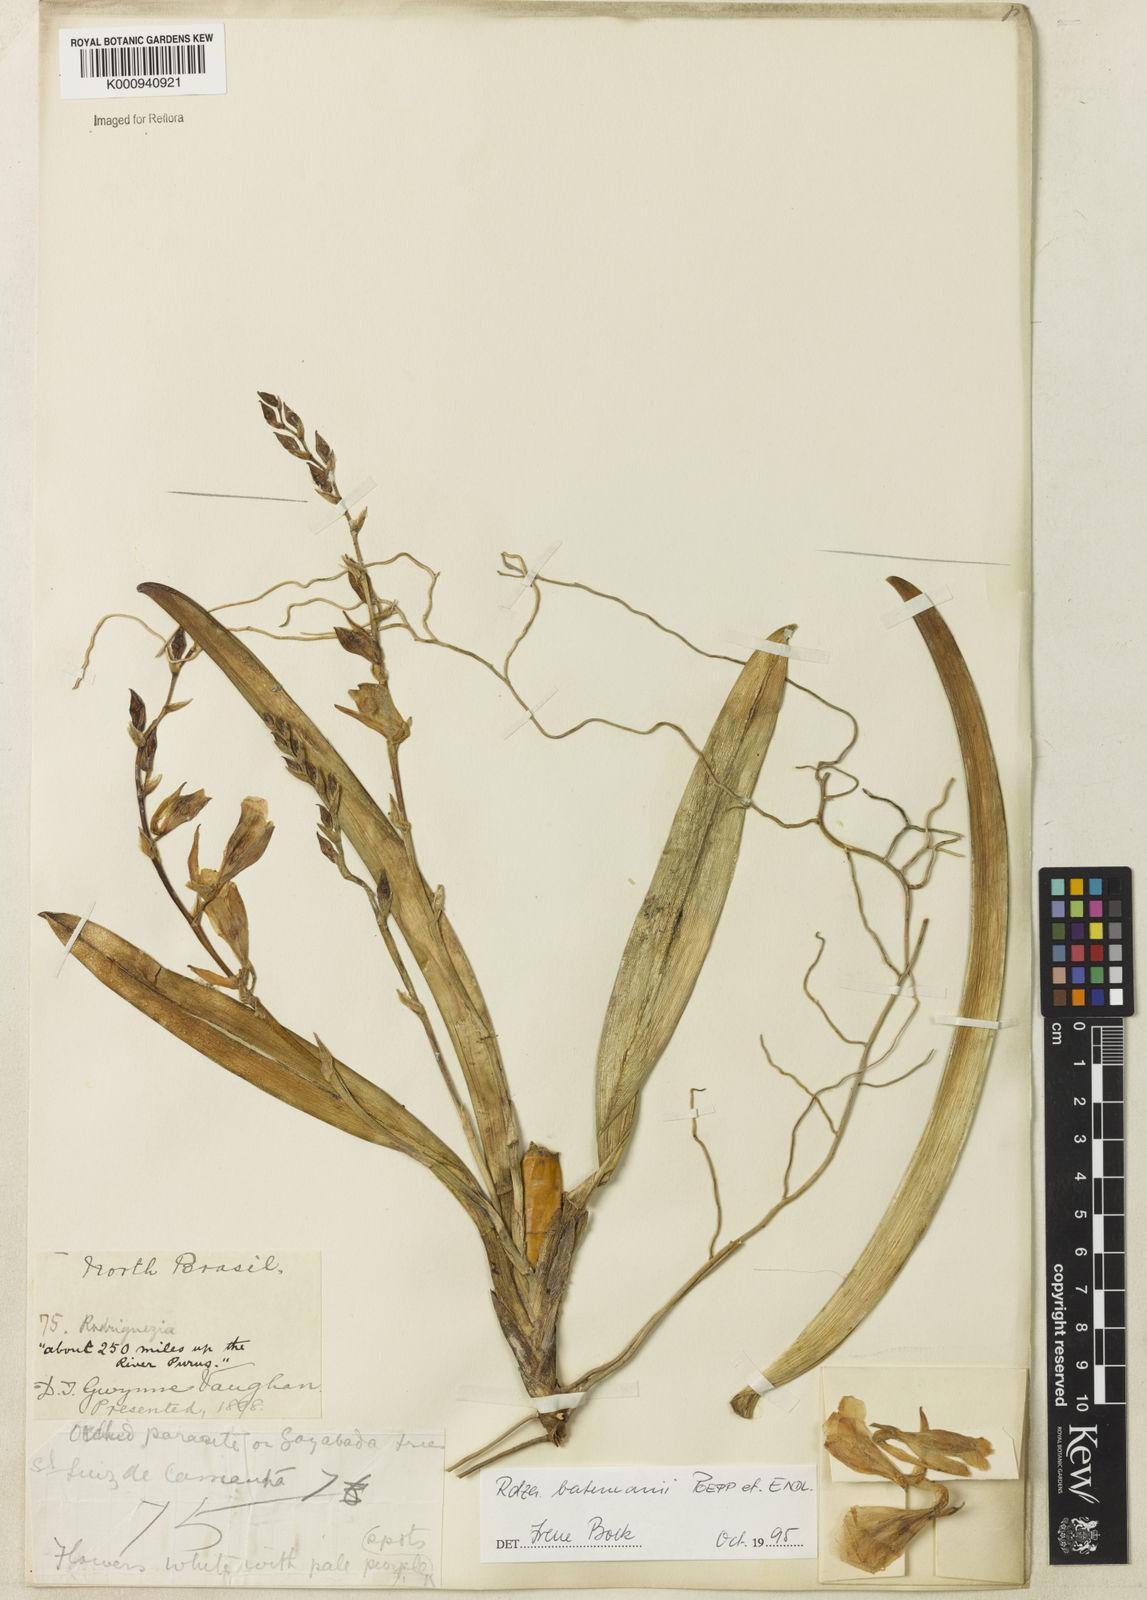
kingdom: Plantae
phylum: Tracheophyta
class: Liliopsida
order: Asparagales
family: Orchidaceae
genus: Rodriguezia
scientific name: Rodriguezia batemanii
